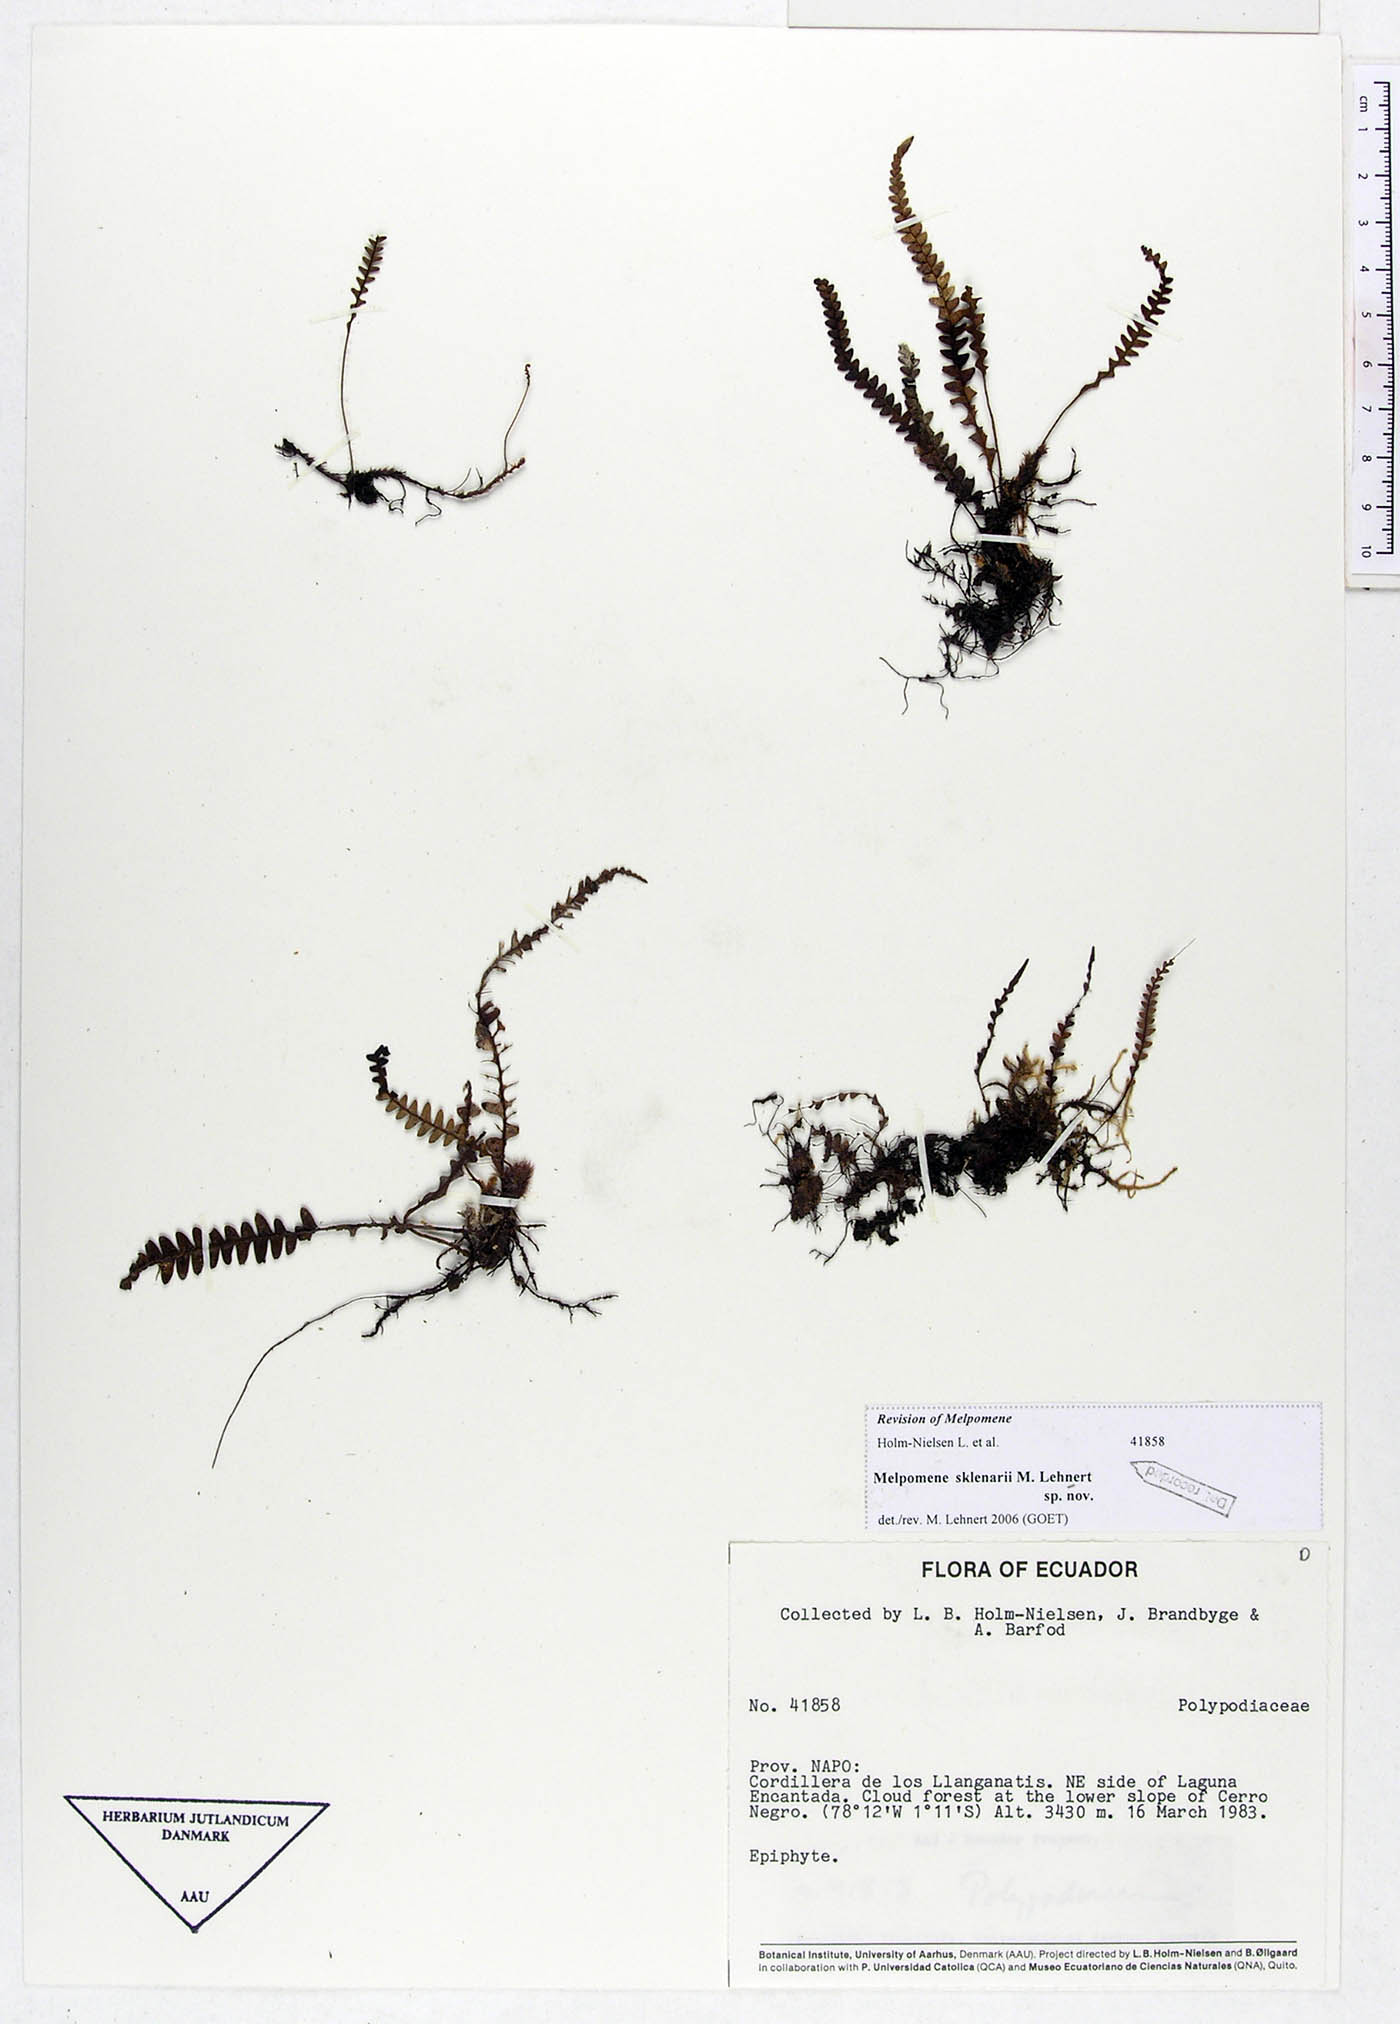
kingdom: Plantae
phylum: Tracheophyta
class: Polypodiopsida
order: Polypodiales
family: Polypodiaceae
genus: Melpomene
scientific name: Melpomene sklenarii
